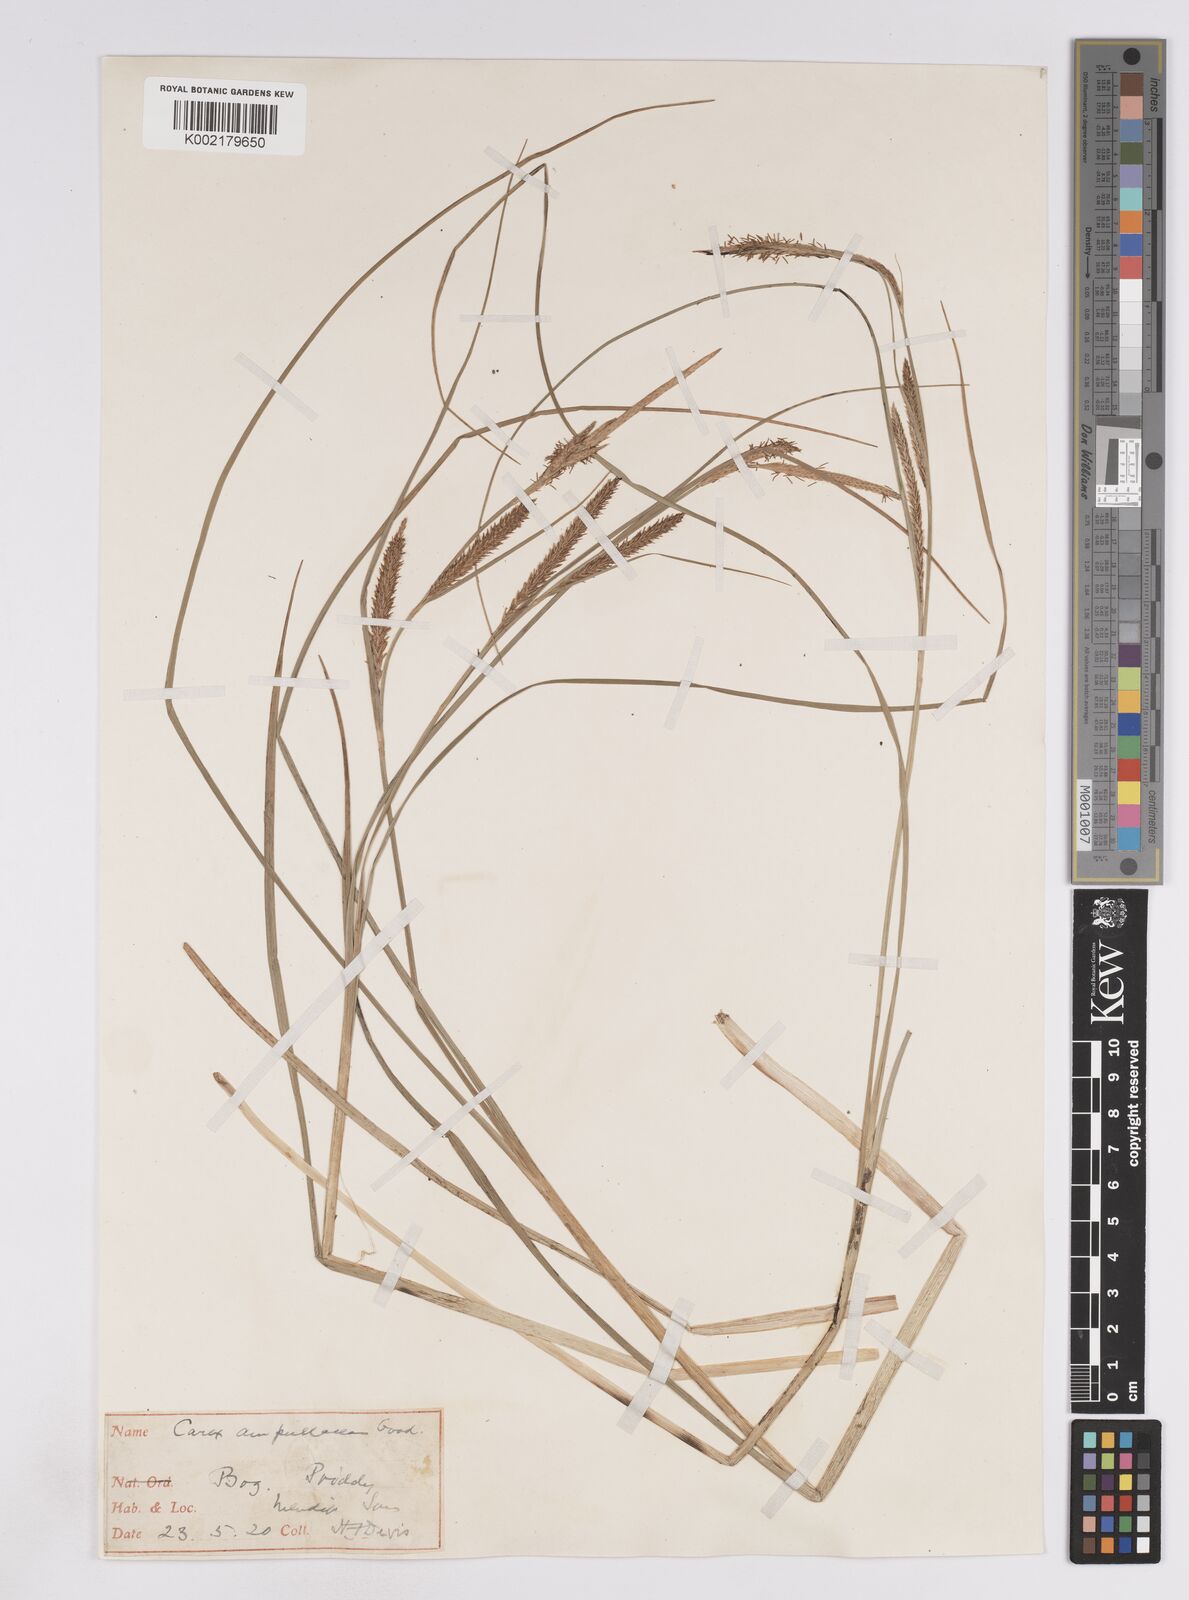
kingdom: Plantae
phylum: Tracheophyta
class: Liliopsida
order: Poales
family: Cyperaceae
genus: Carex
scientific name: Carex rostrata
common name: Bottle sedge
